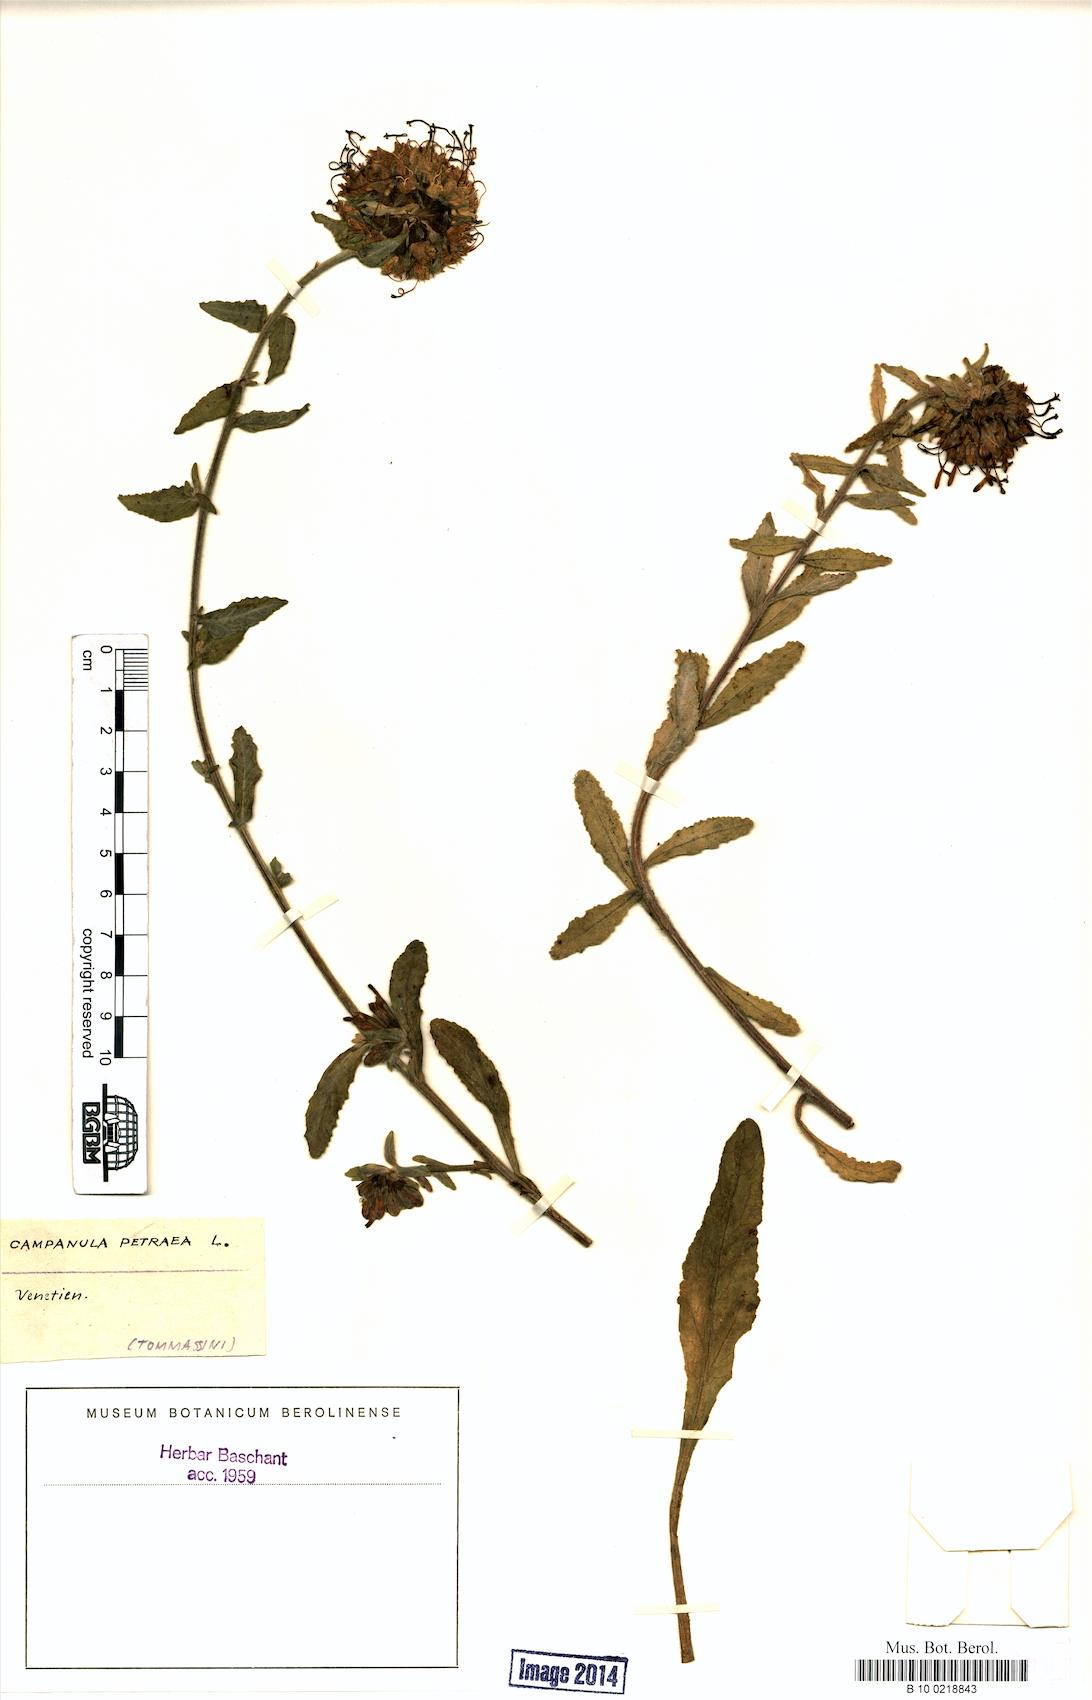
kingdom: Plantae
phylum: Tracheophyta
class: Magnoliopsida
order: Asterales
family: Campanulaceae
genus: Campanula
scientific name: Campanula petraea
